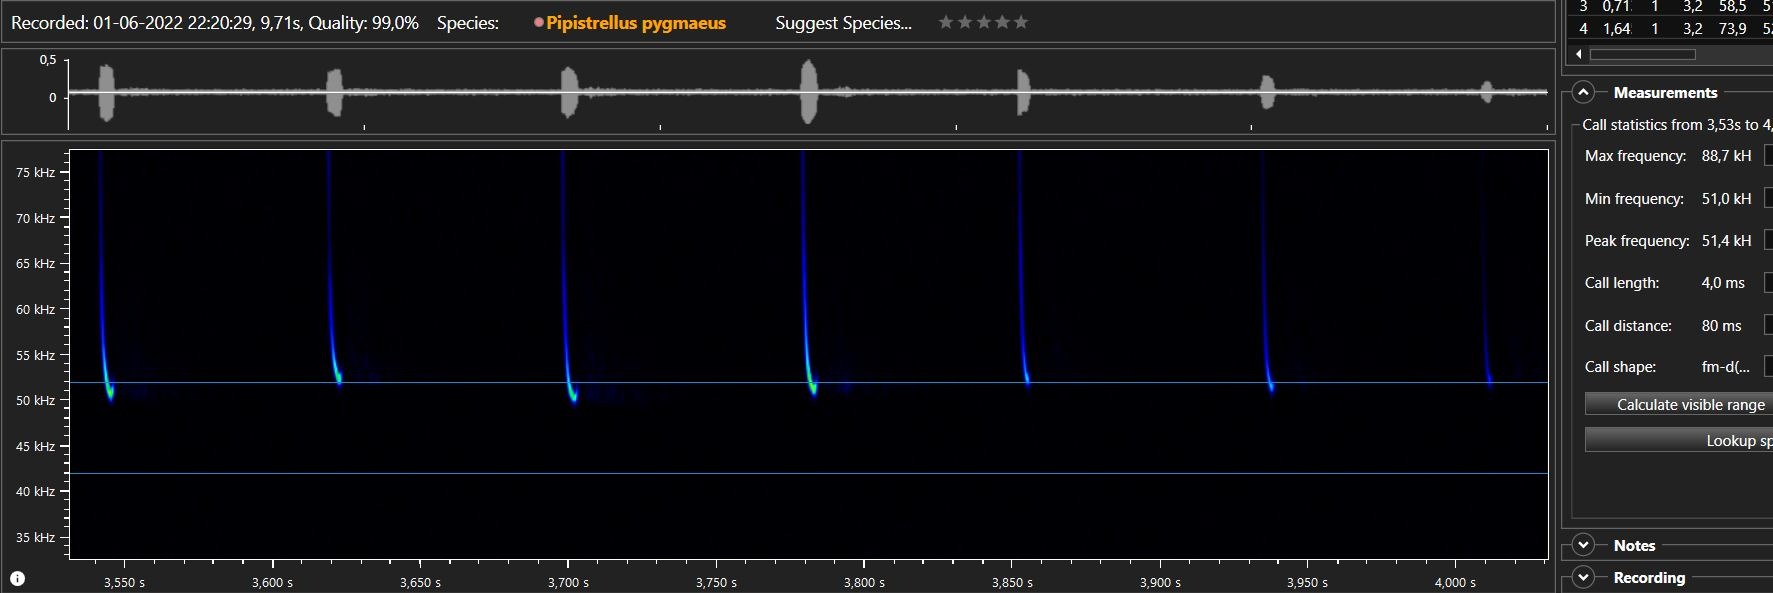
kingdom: Animalia
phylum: Chordata
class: Mammalia
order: Chiroptera
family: Vespertilionidae
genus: Pipistrellus
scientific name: Pipistrellus pygmaeus
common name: Dværgflagermus
